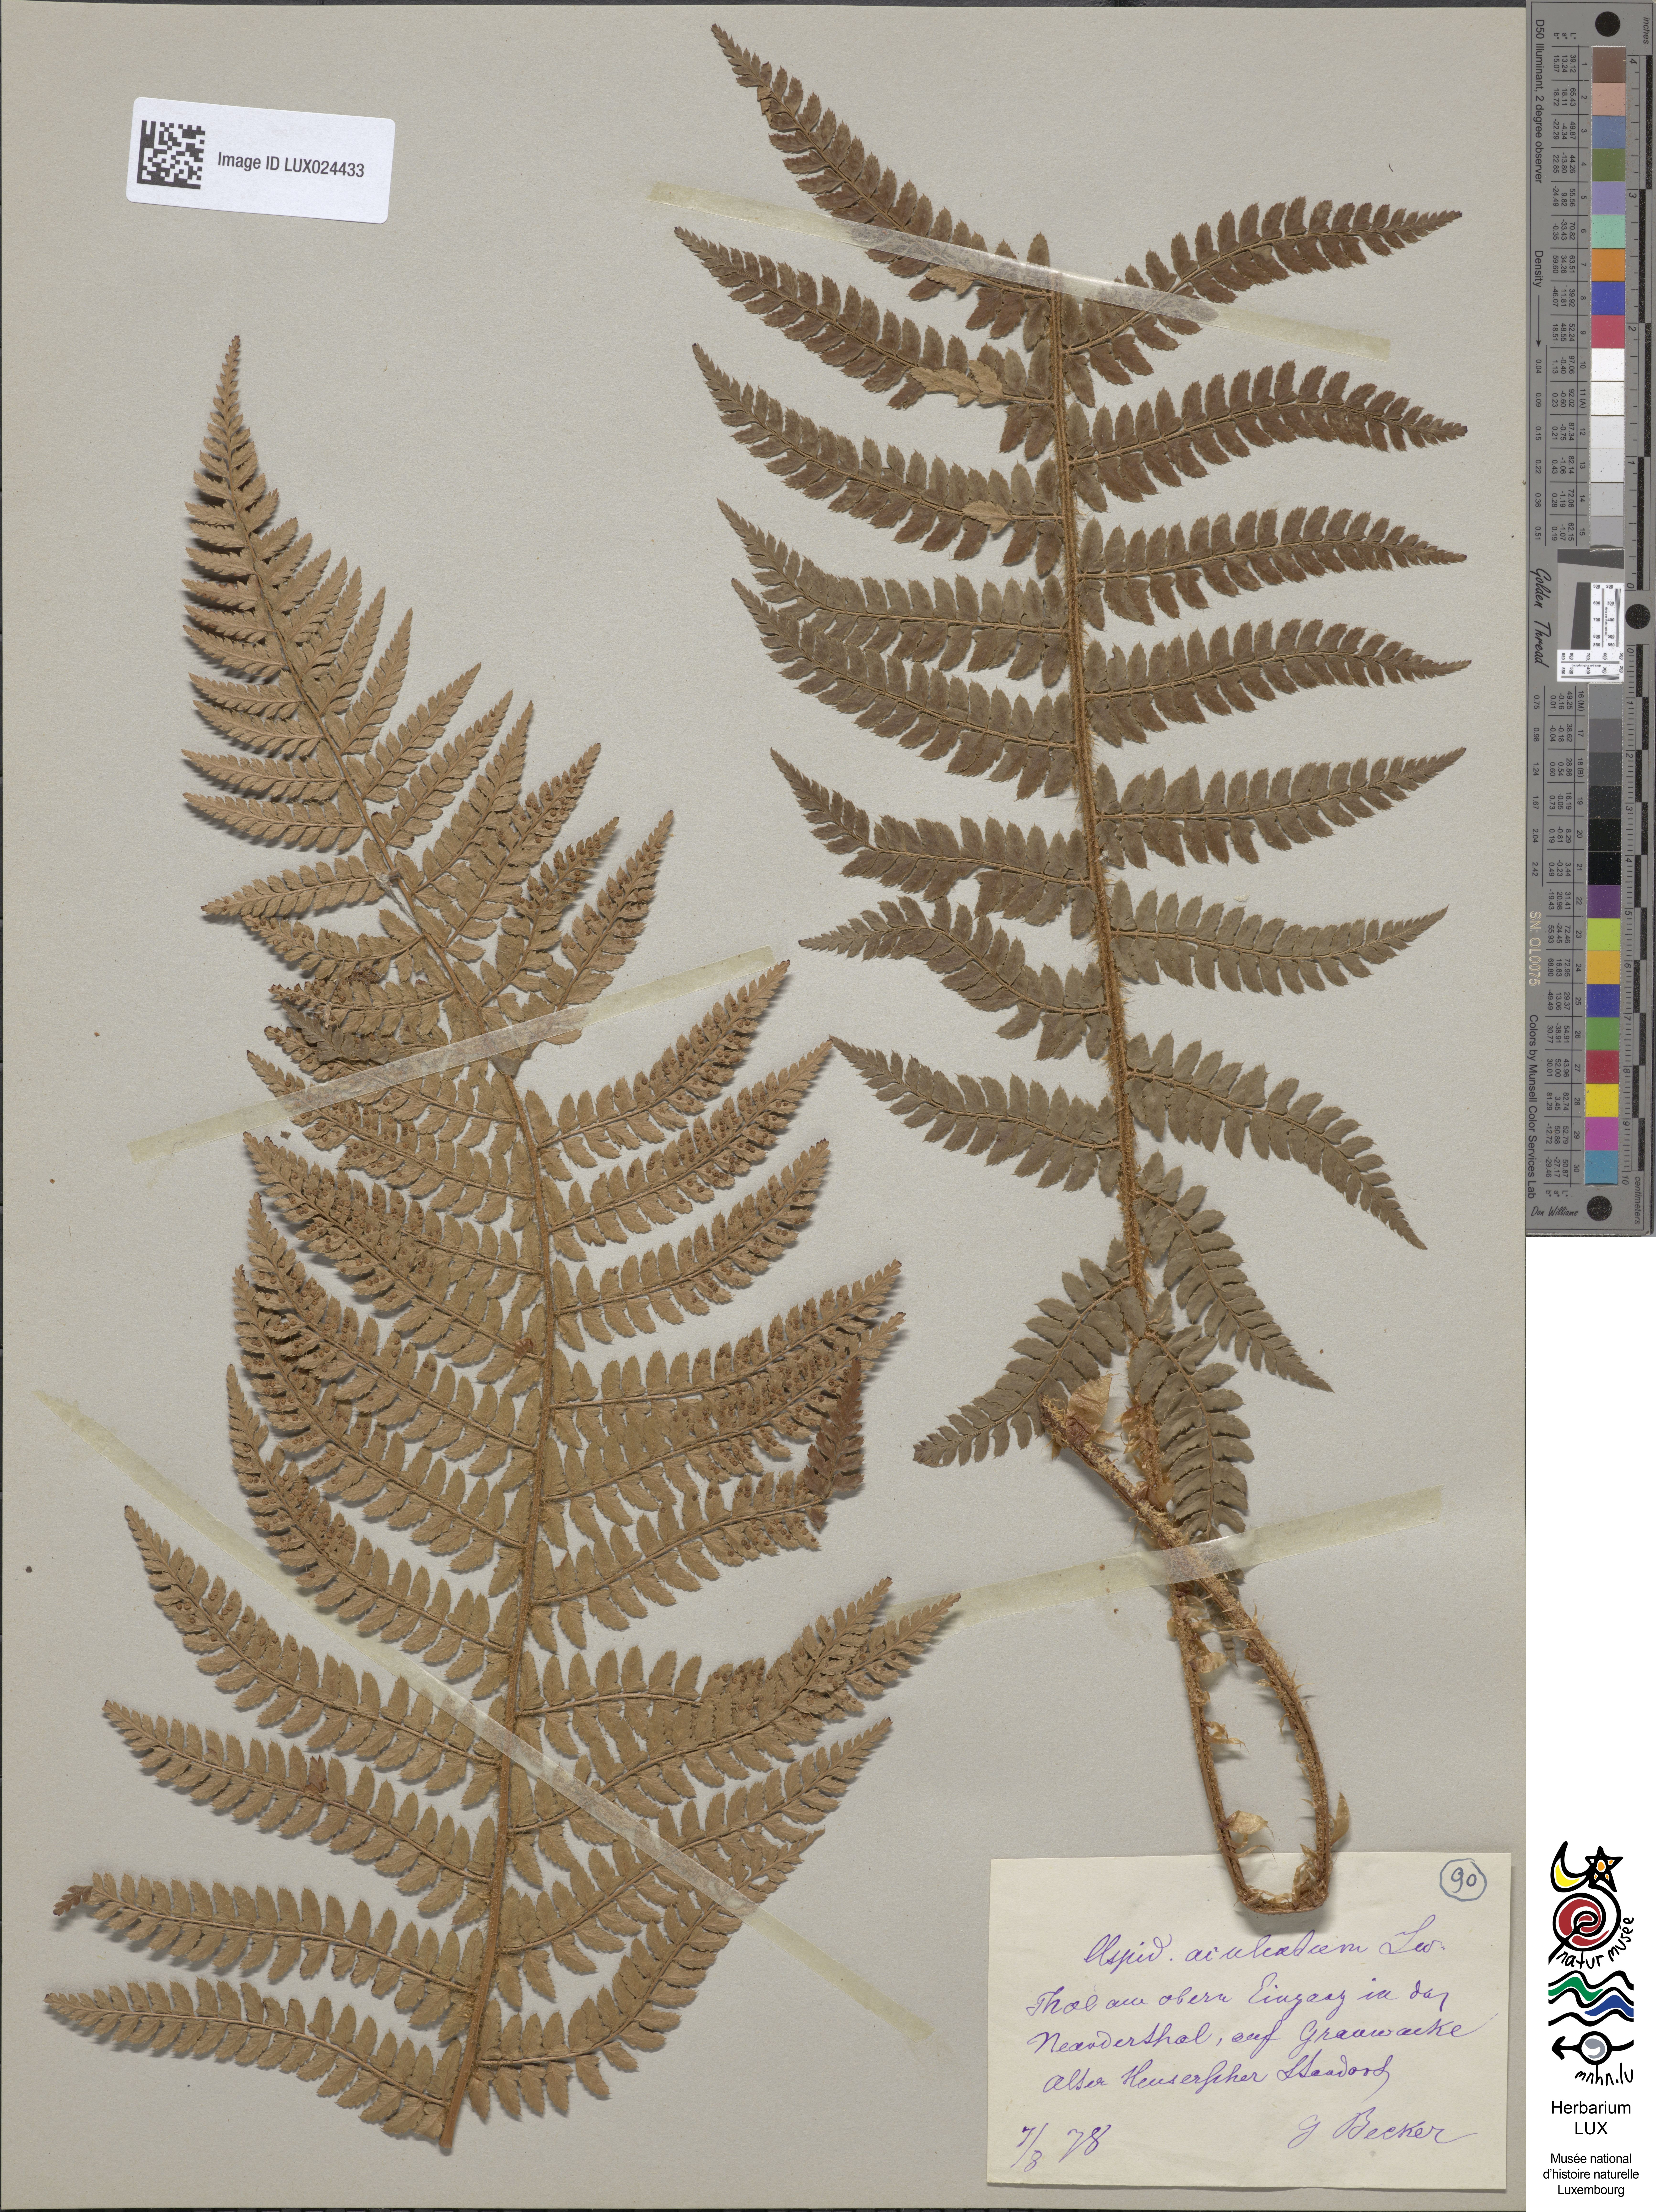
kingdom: Plantae
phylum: Tracheophyta
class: Polypodiopsida
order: Polypodiales
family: Dryopteridaceae
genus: Polystichum
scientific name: Polystichum aculeatum
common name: Hard shield-fern
